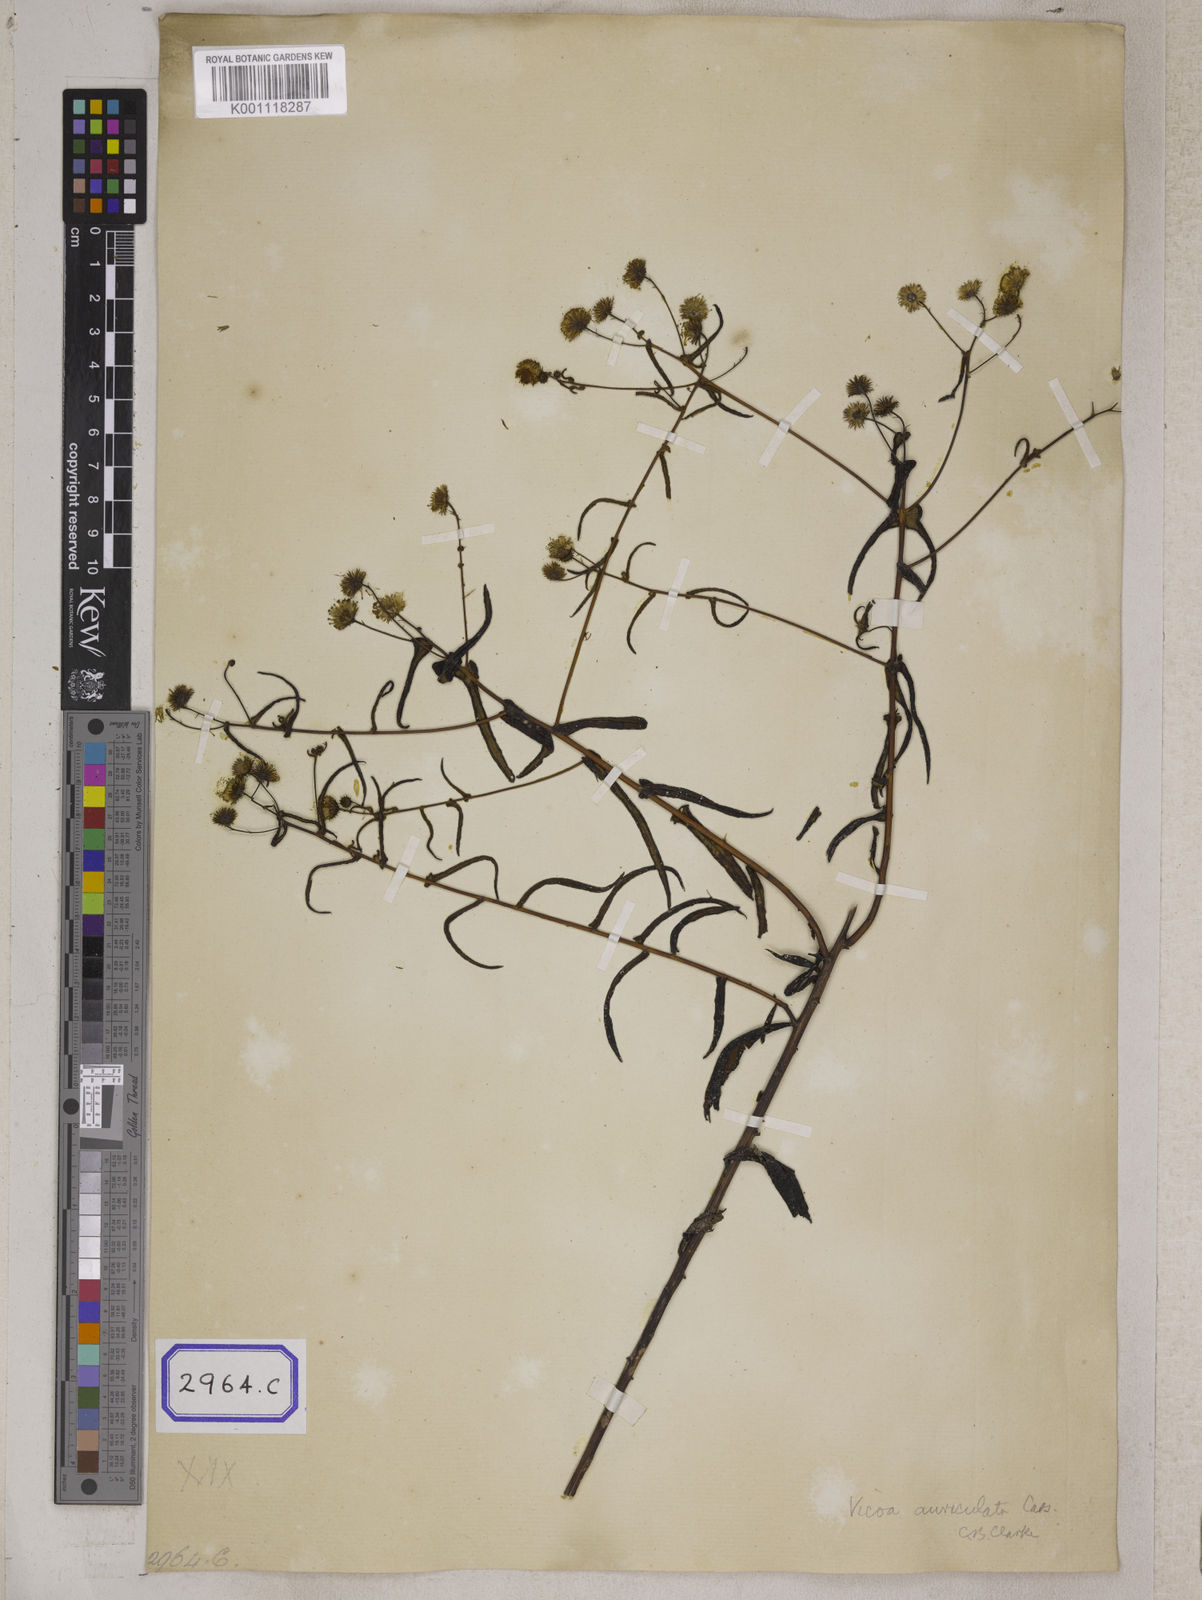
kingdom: Plantae
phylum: Tracheophyta
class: Magnoliopsida
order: Asterales
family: Asteraceae
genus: Vicoa
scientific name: Vicoa indica
